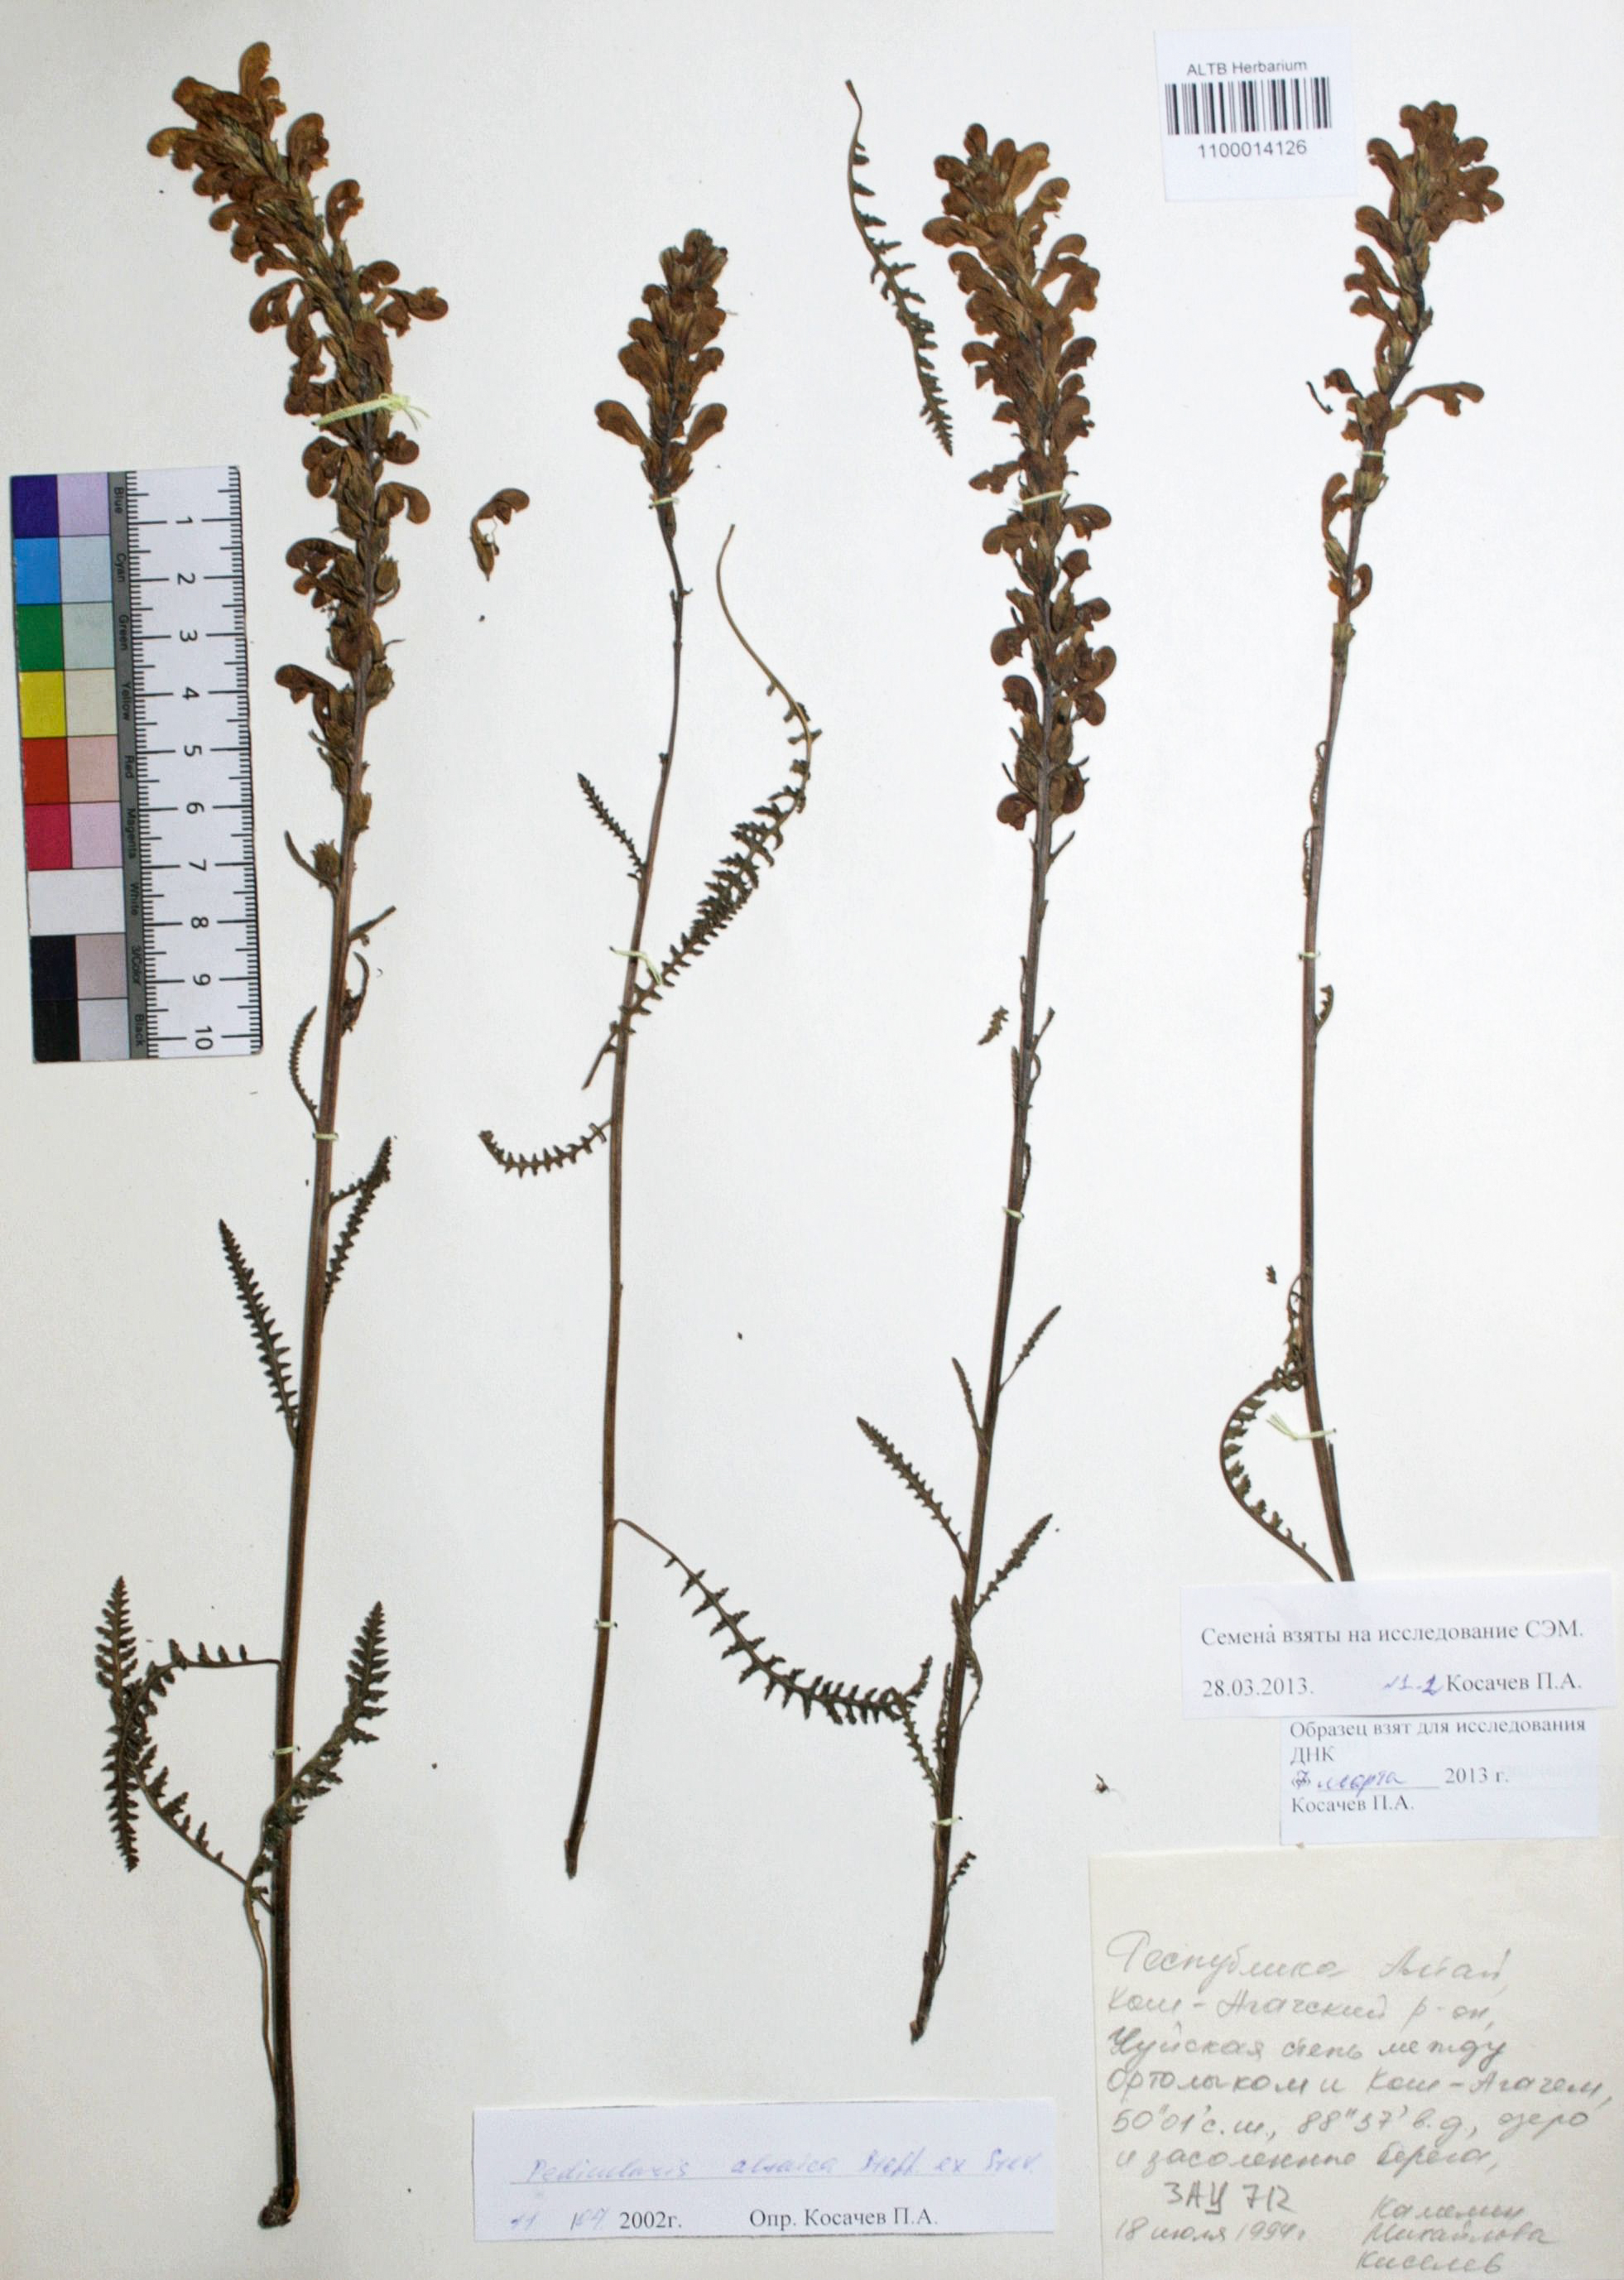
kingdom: Plantae
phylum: Tracheophyta
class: Magnoliopsida
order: Lamiales
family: Orobanchaceae
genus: Pedicularis
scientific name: Pedicularis altaica
